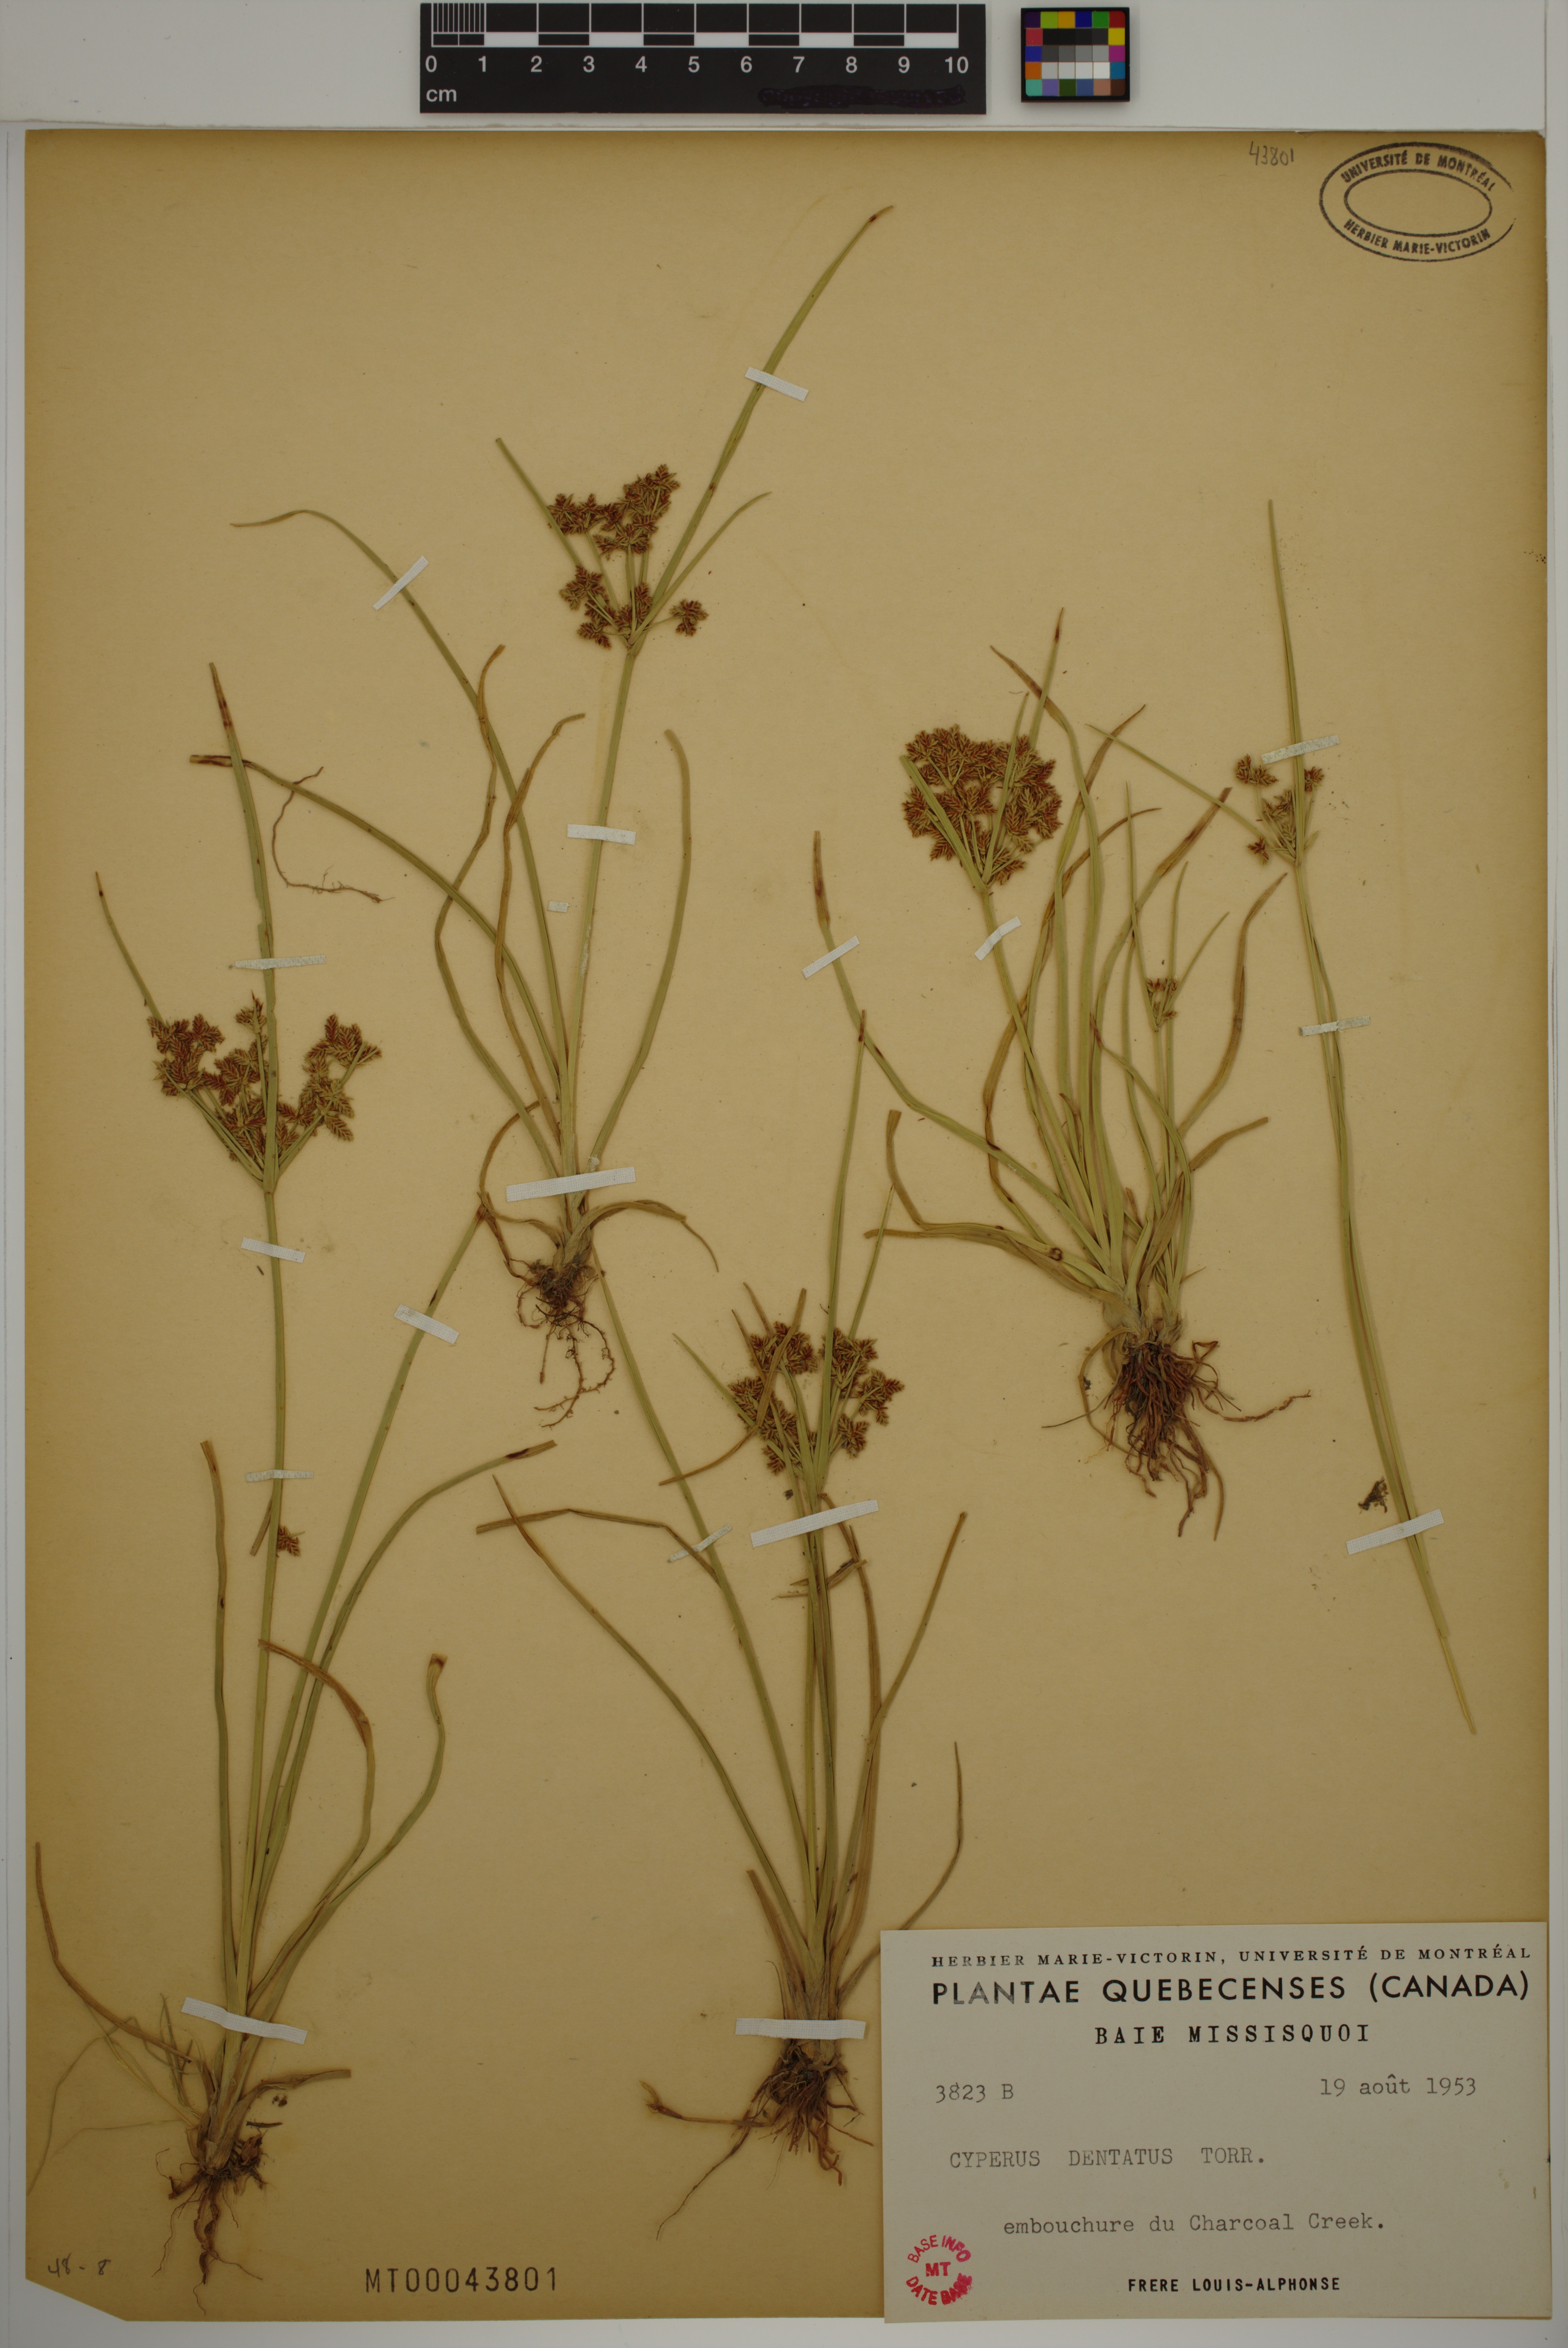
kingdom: Plantae
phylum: Tracheophyta
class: Liliopsida
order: Poales
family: Cyperaceae
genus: Cyperus
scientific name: Cyperus dentatus
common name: Dentate umbrella sedge
